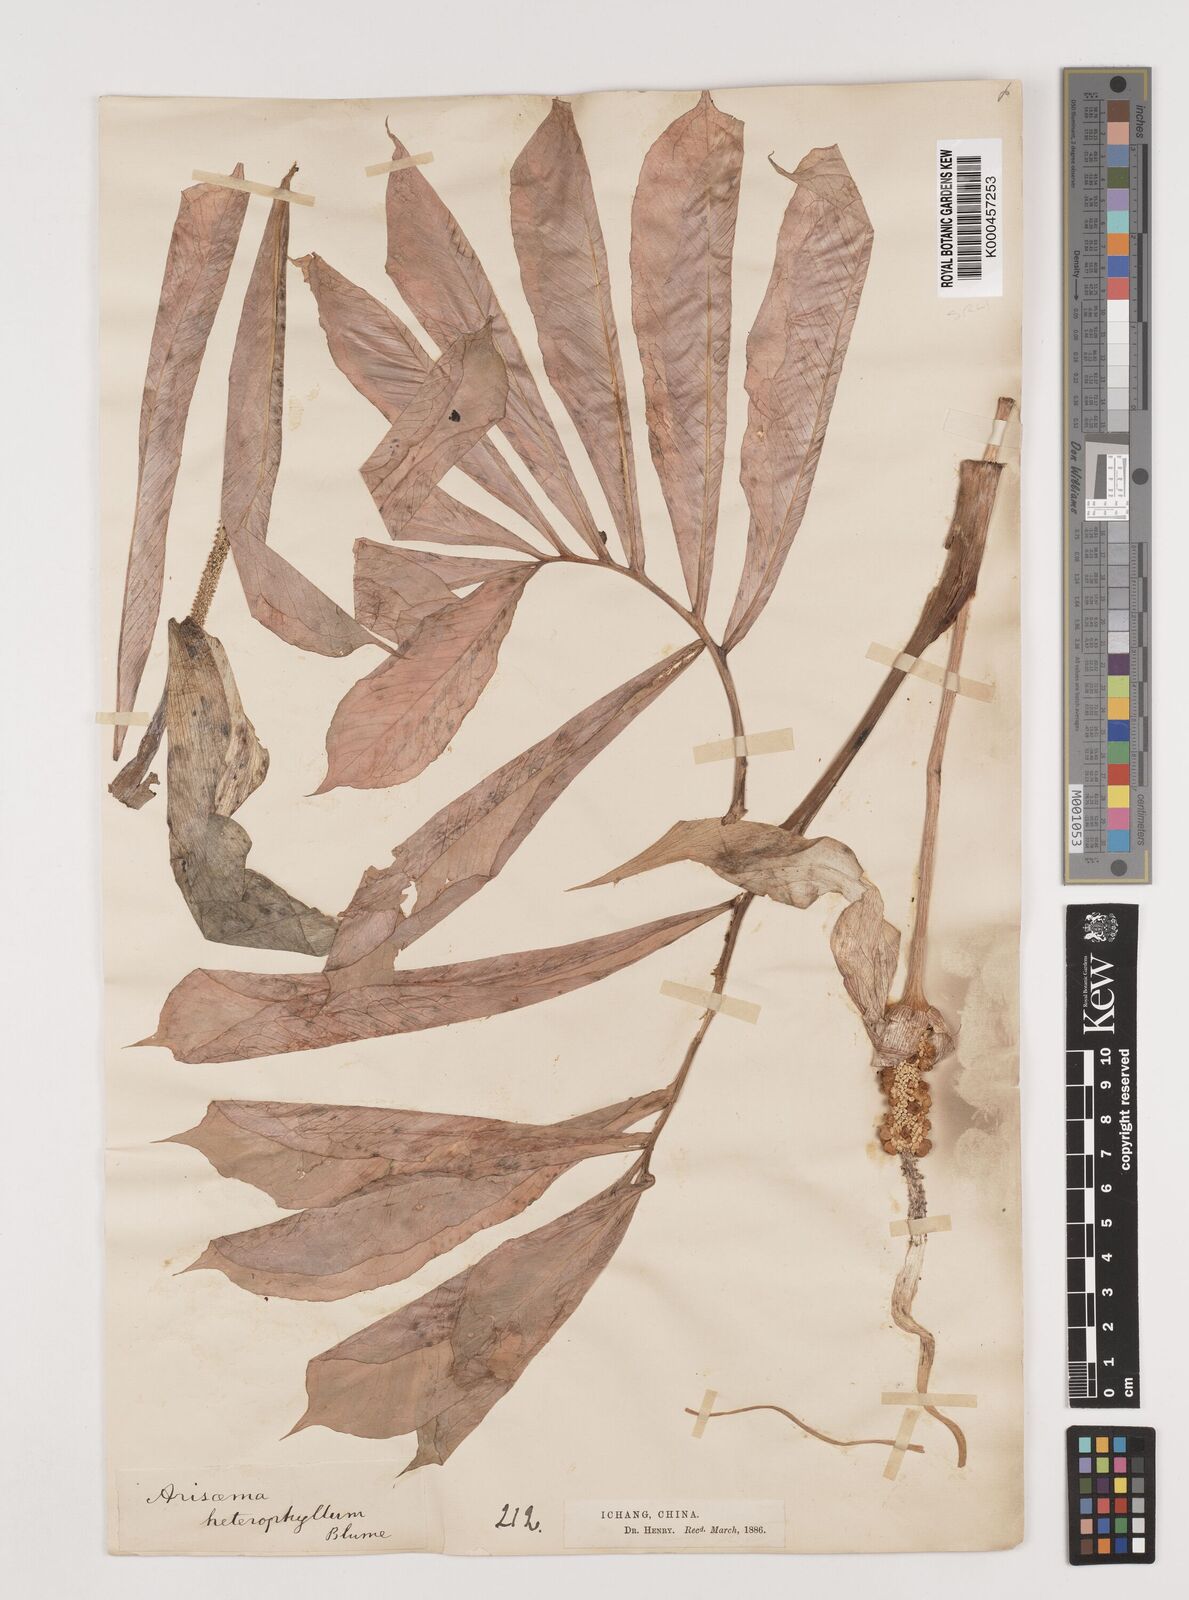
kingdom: Plantae
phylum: Tracheophyta
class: Liliopsida
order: Alismatales
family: Araceae
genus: Arisaema
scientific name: Arisaema heterophyllum
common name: Dancing crane cobra lily
